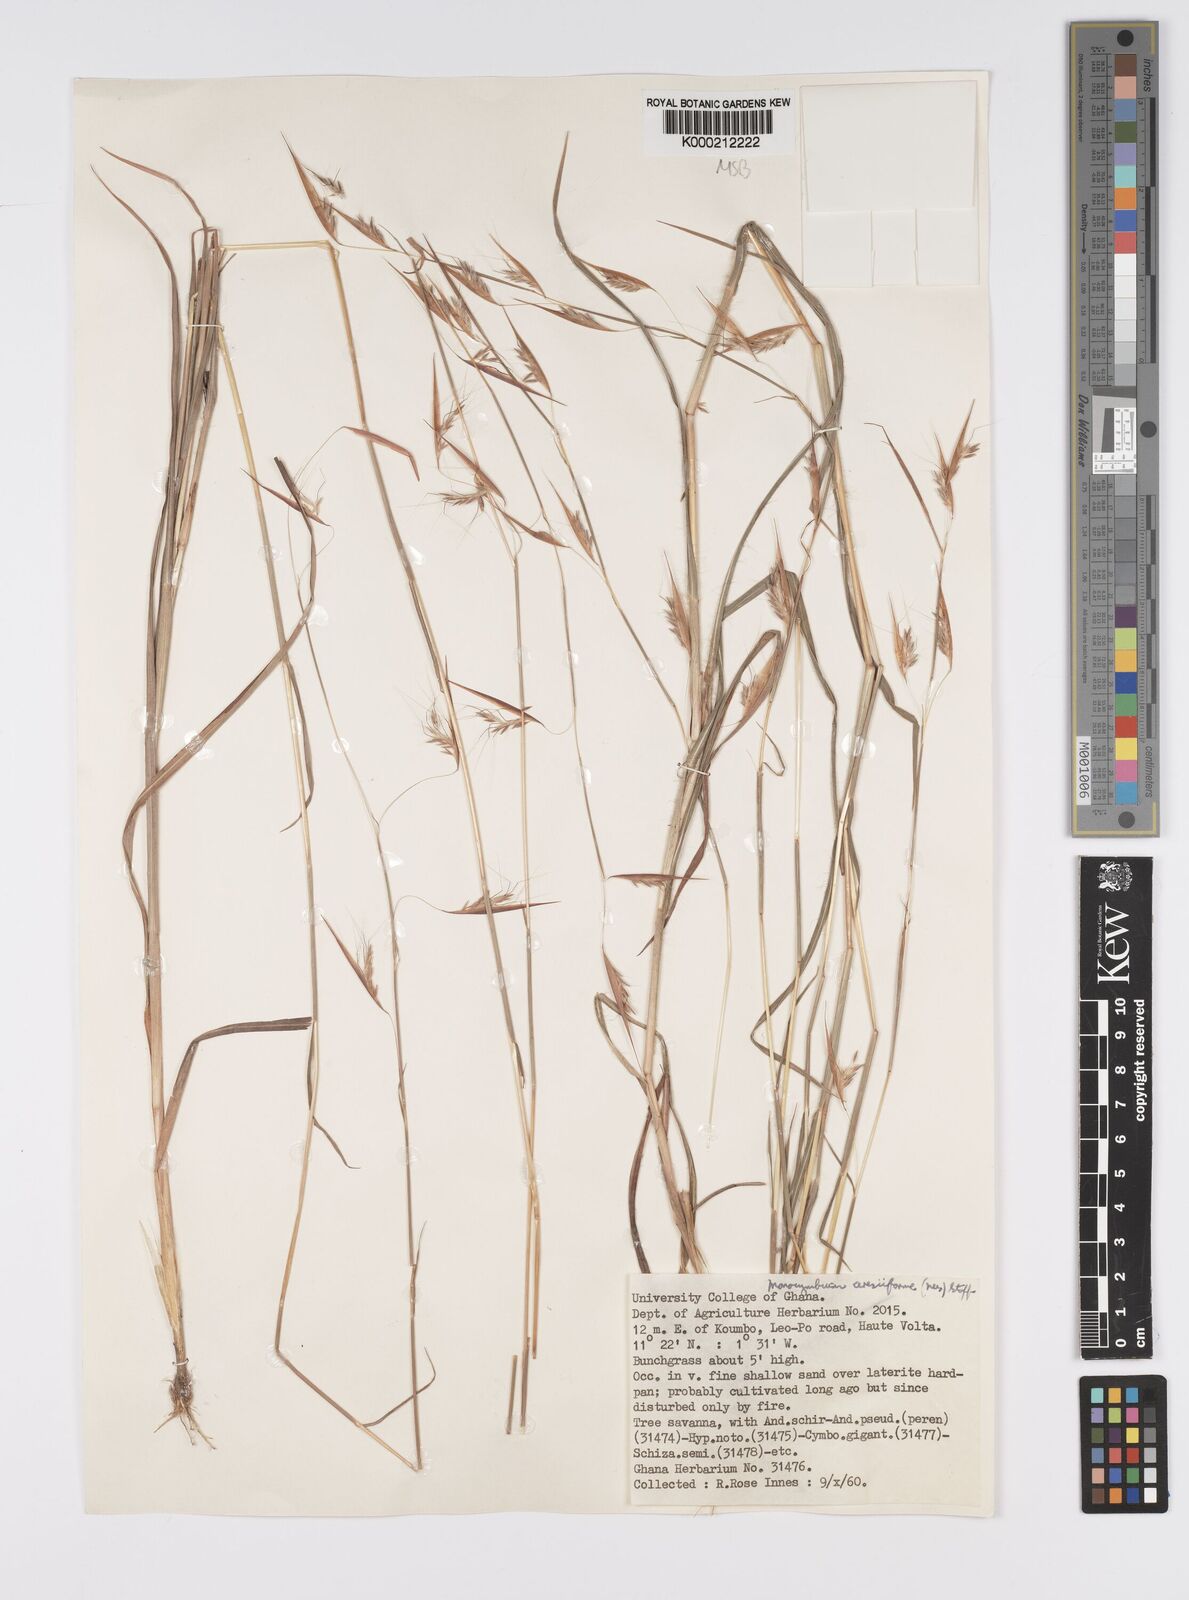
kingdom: Plantae
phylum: Tracheophyta
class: Liliopsida
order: Poales
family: Poaceae
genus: Monocymbium
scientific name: Monocymbium ceresiiforme
